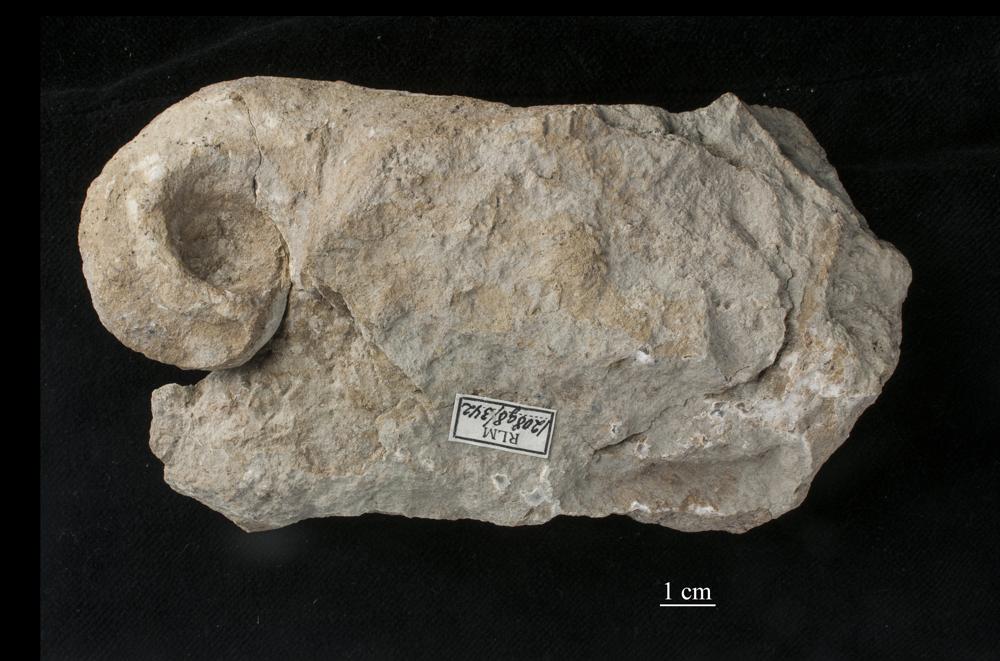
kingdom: Animalia
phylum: Mollusca
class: Gastropoda
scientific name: Gastropoda
